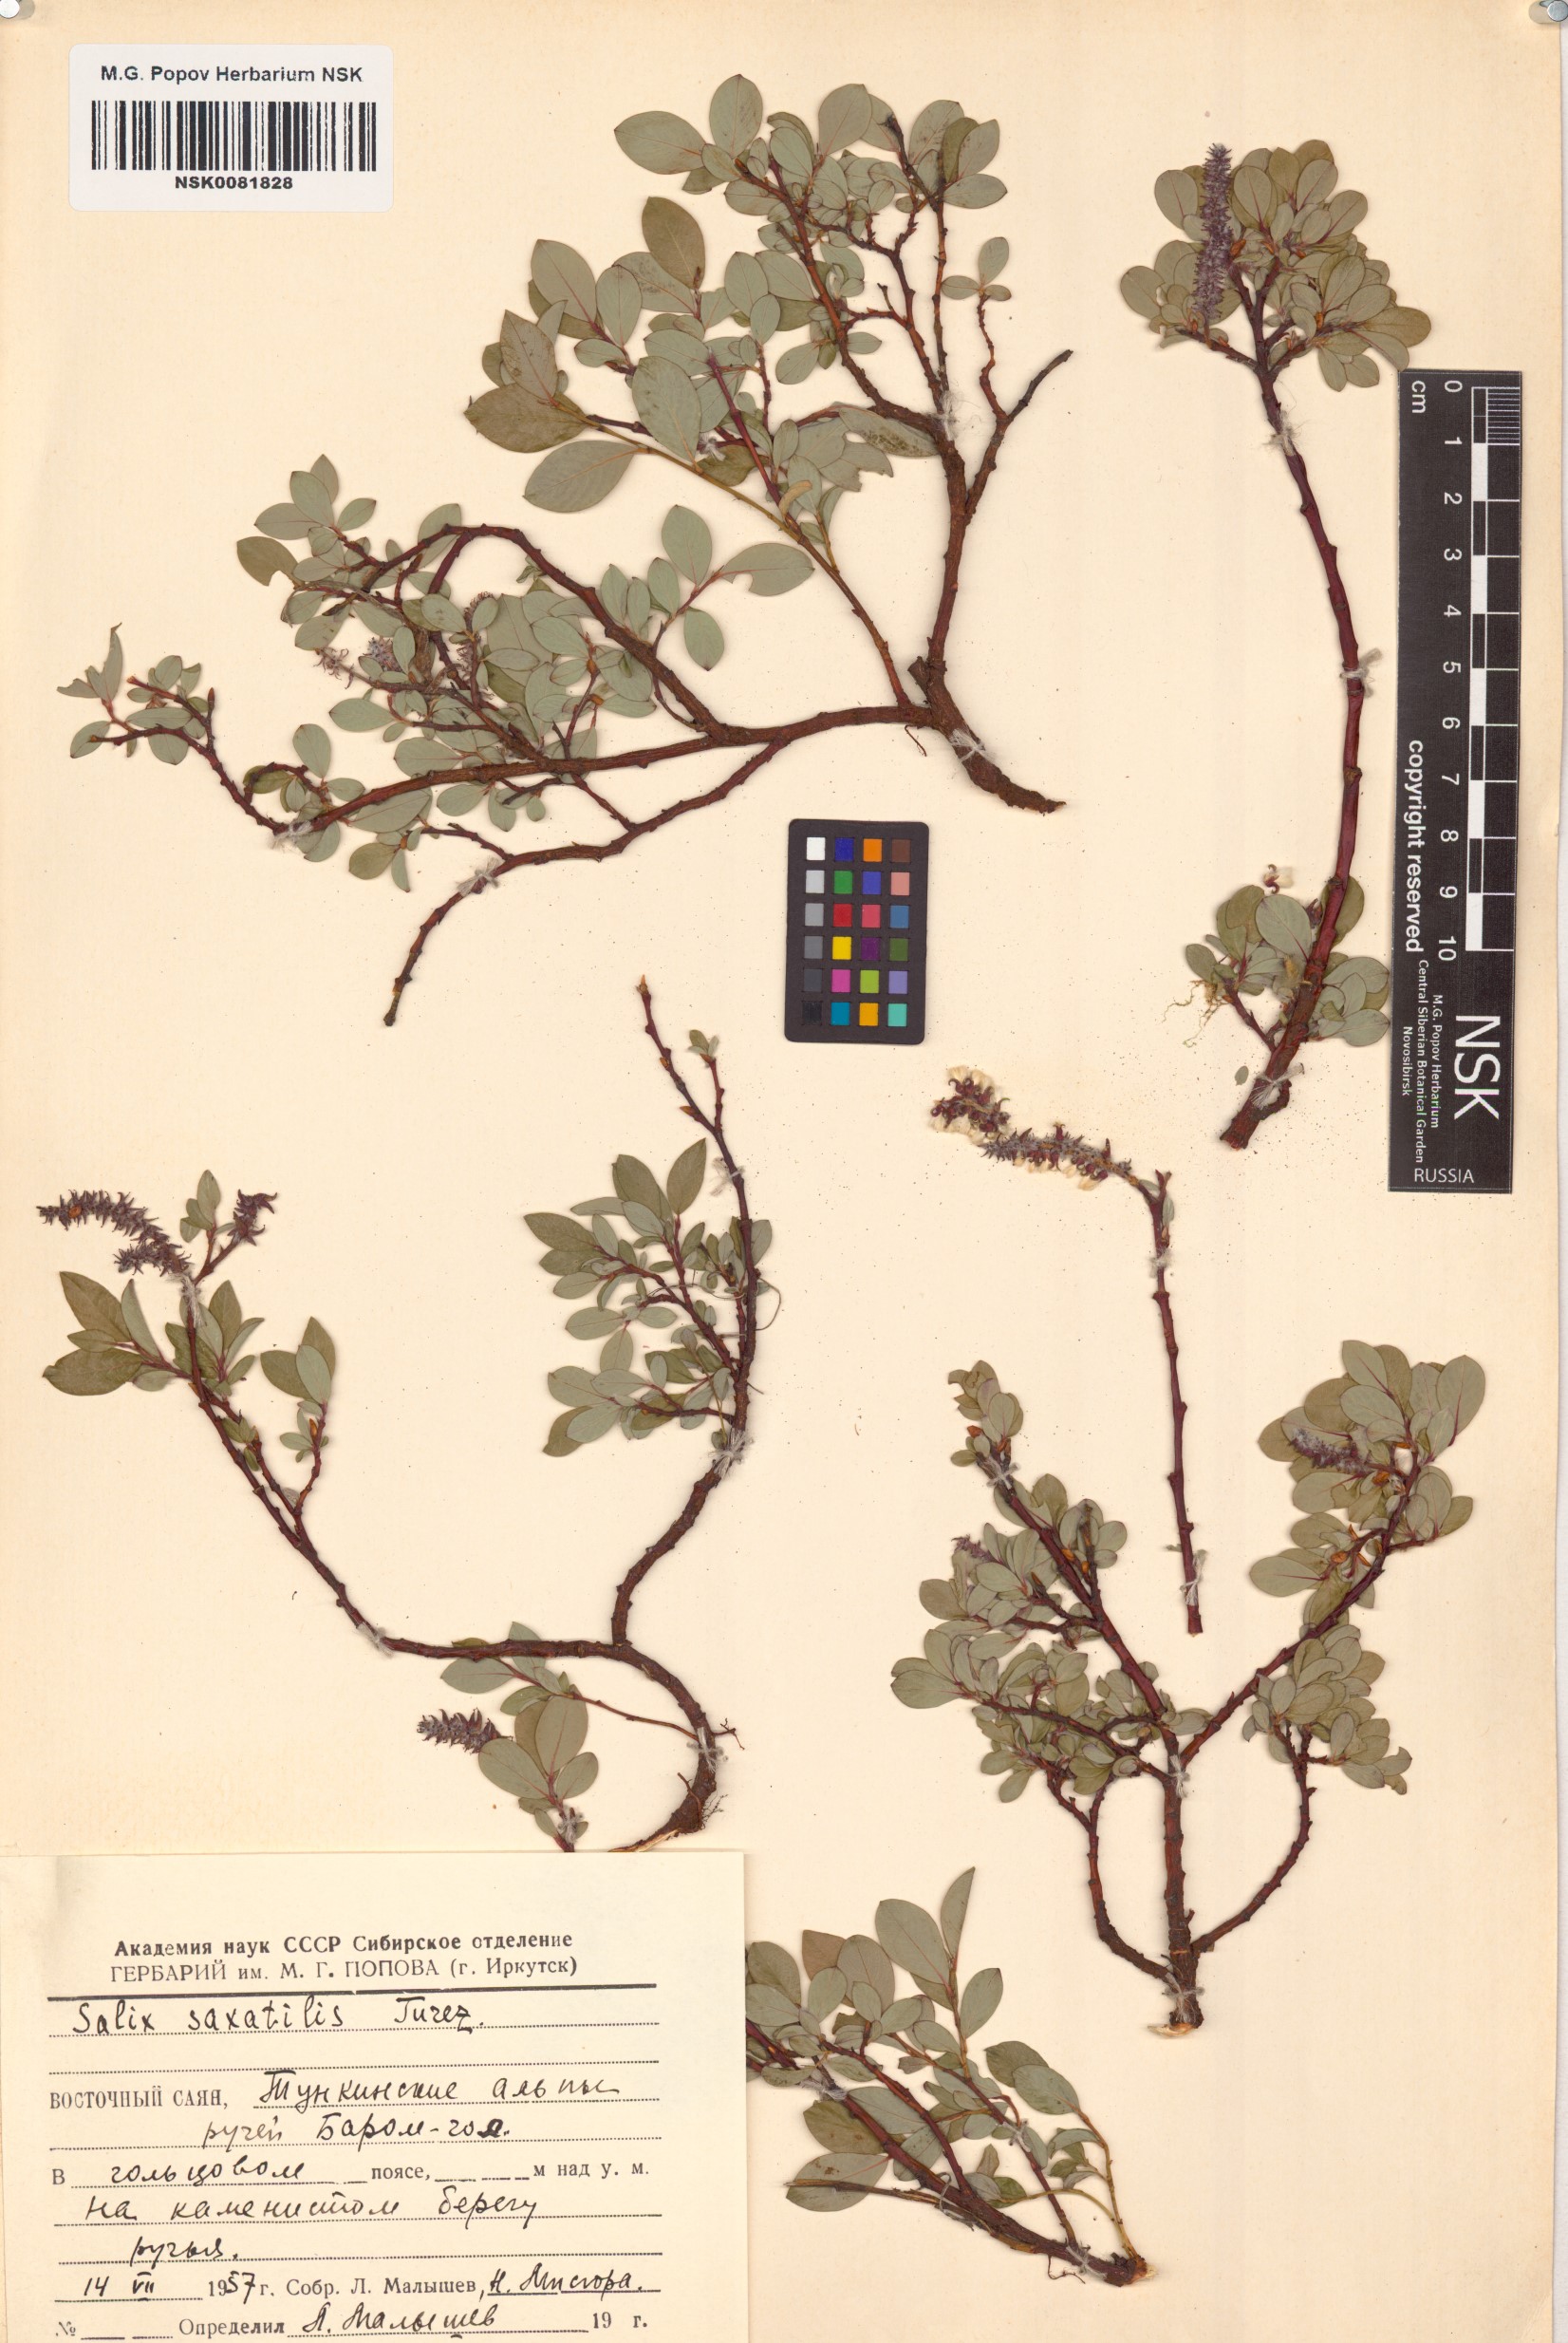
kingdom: Plantae
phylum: Tracheophyta
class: Magnoliopsida
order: Malpighiales
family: Salicaceae
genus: Salix
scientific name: Salix saxatilis
